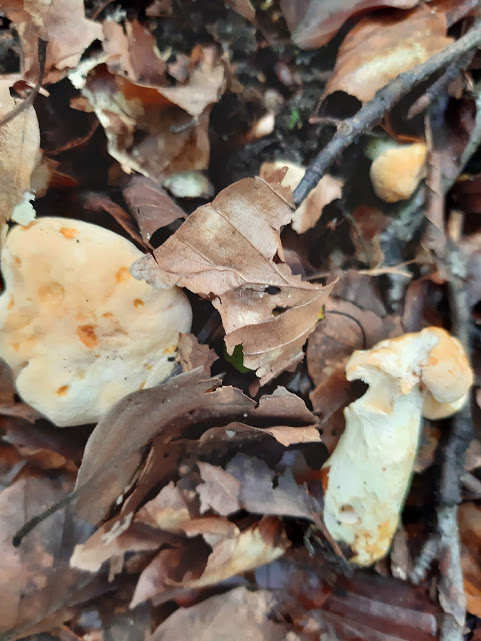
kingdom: Fungi
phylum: Basidiomycota
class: Agaricomycetes
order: Cantharellales
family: Hydnaceae
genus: Hydnum
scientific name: Hydnum
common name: pigsvamp
